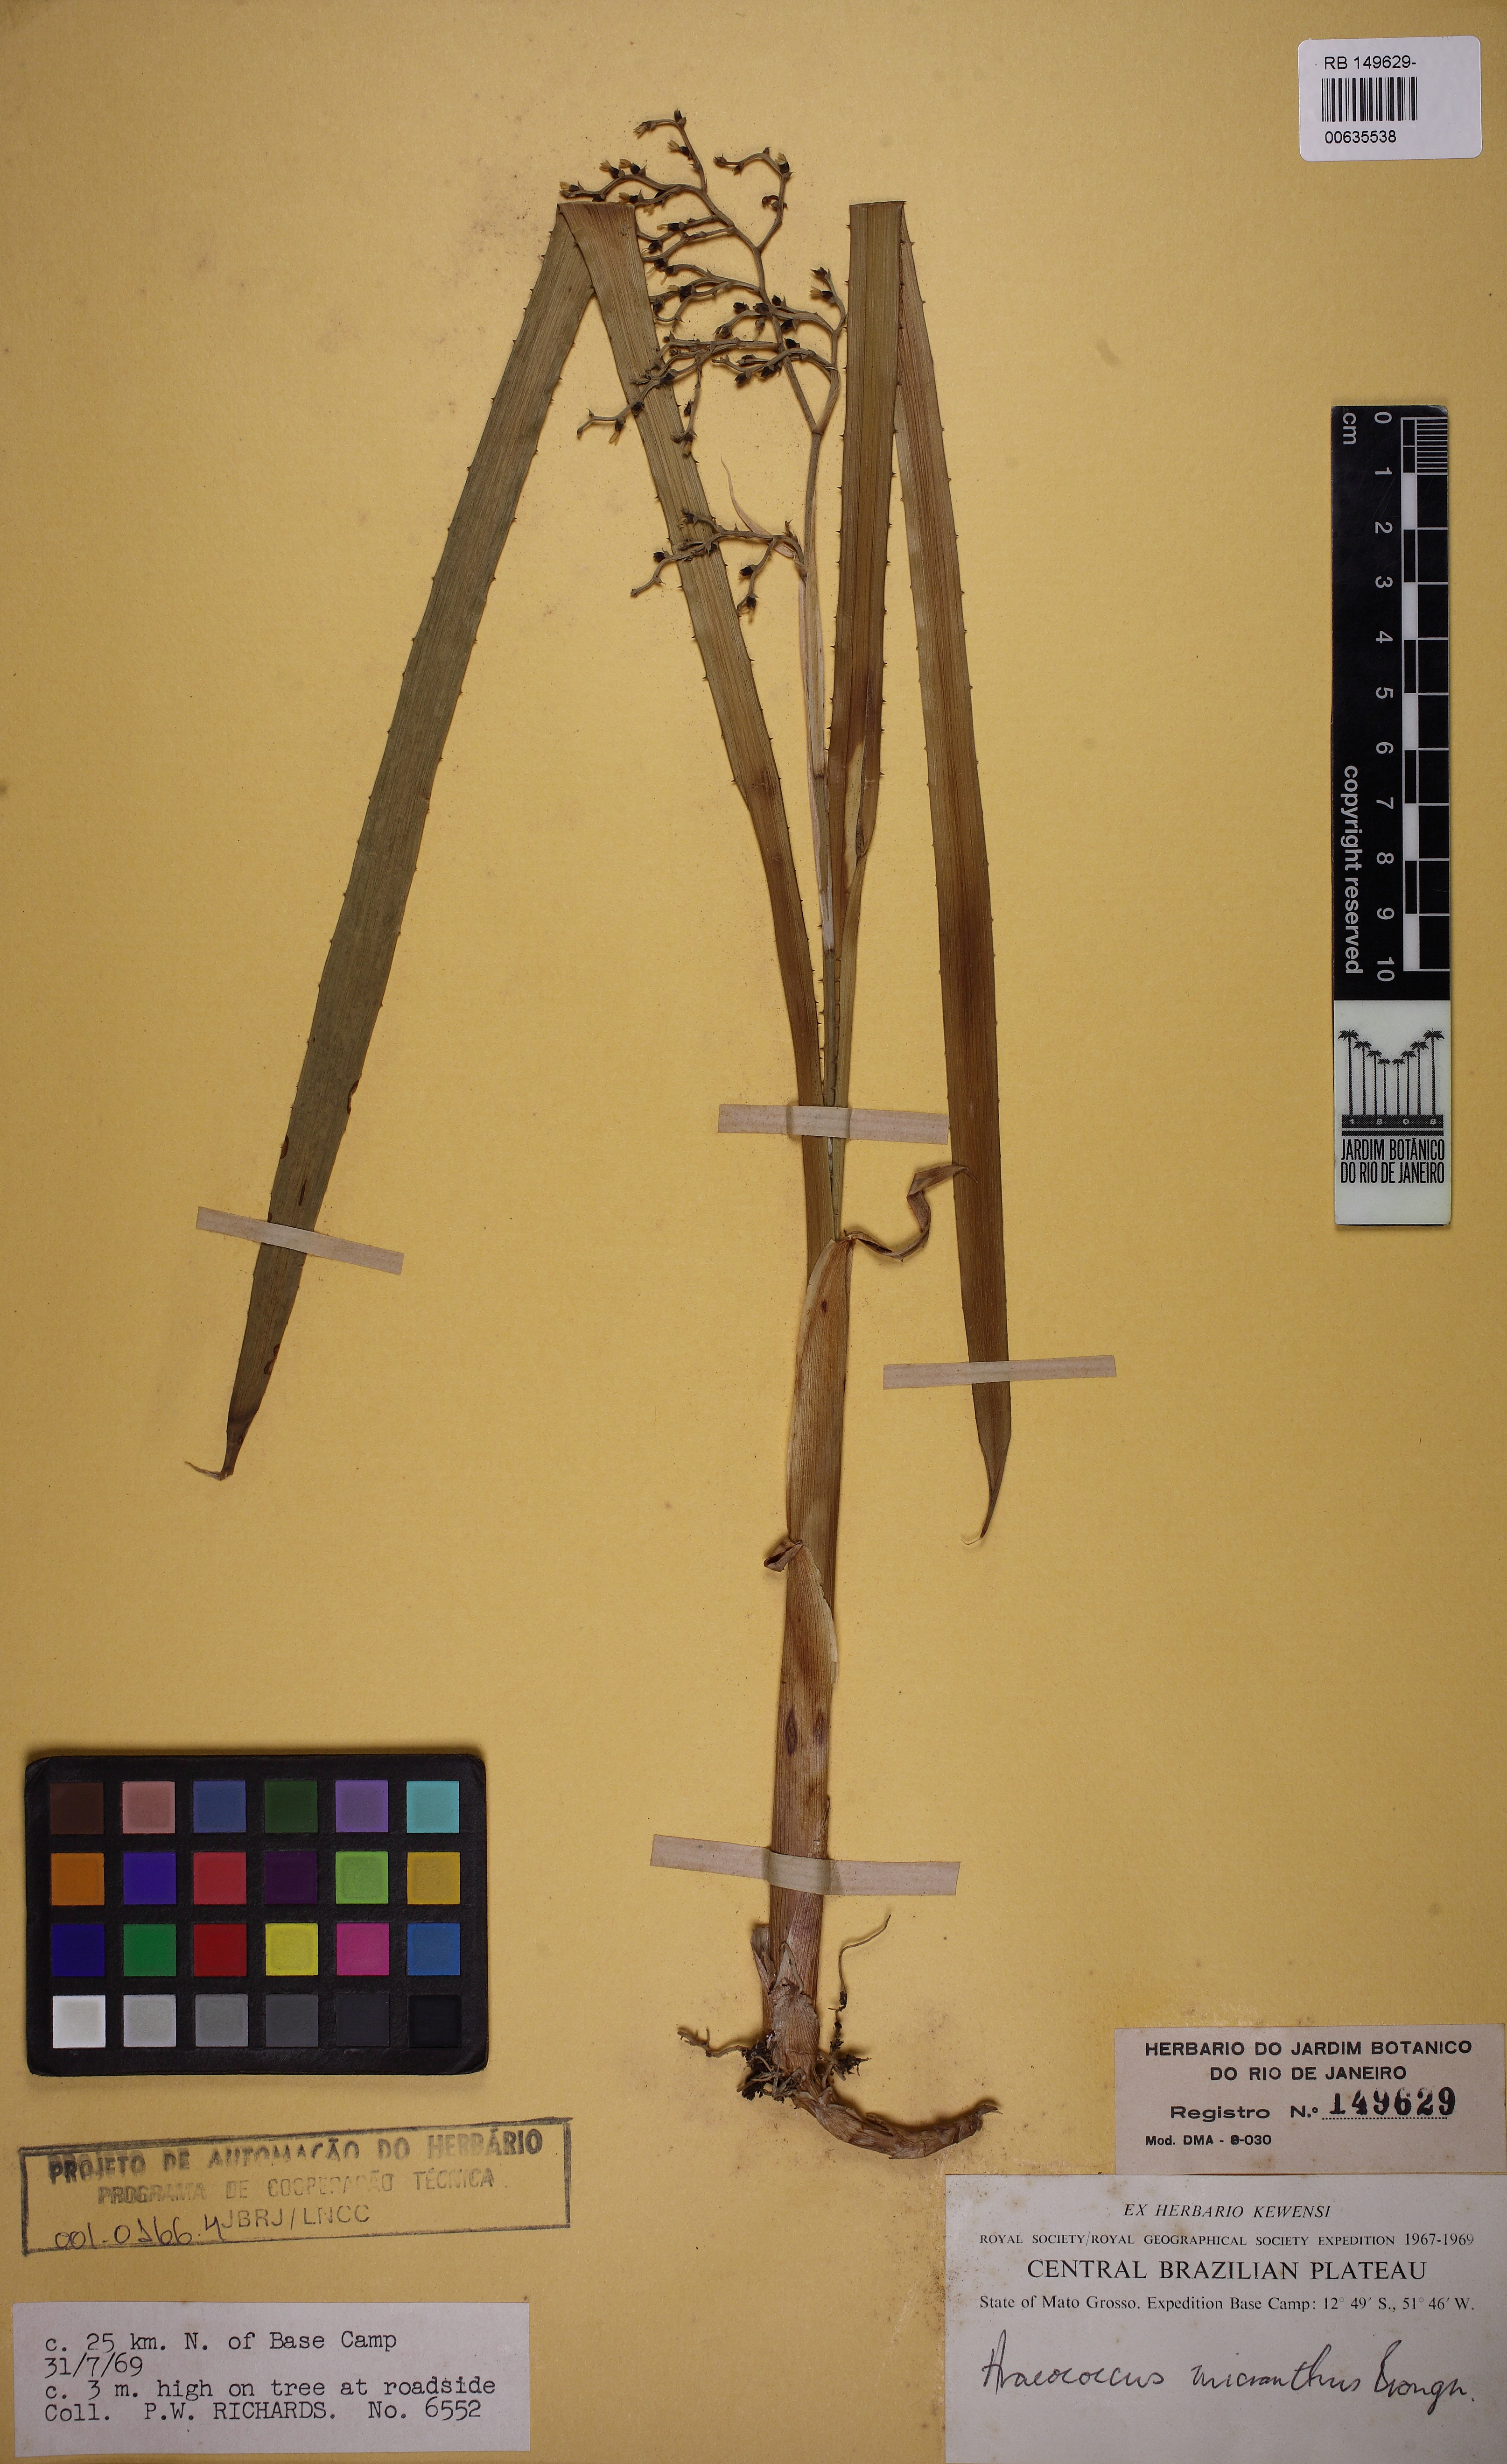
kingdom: Plantae
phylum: Tracheophyta
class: Liliopsida
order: Poales
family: Bromeliaceae
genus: Araeococcus
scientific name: Araeococcus micranthus
